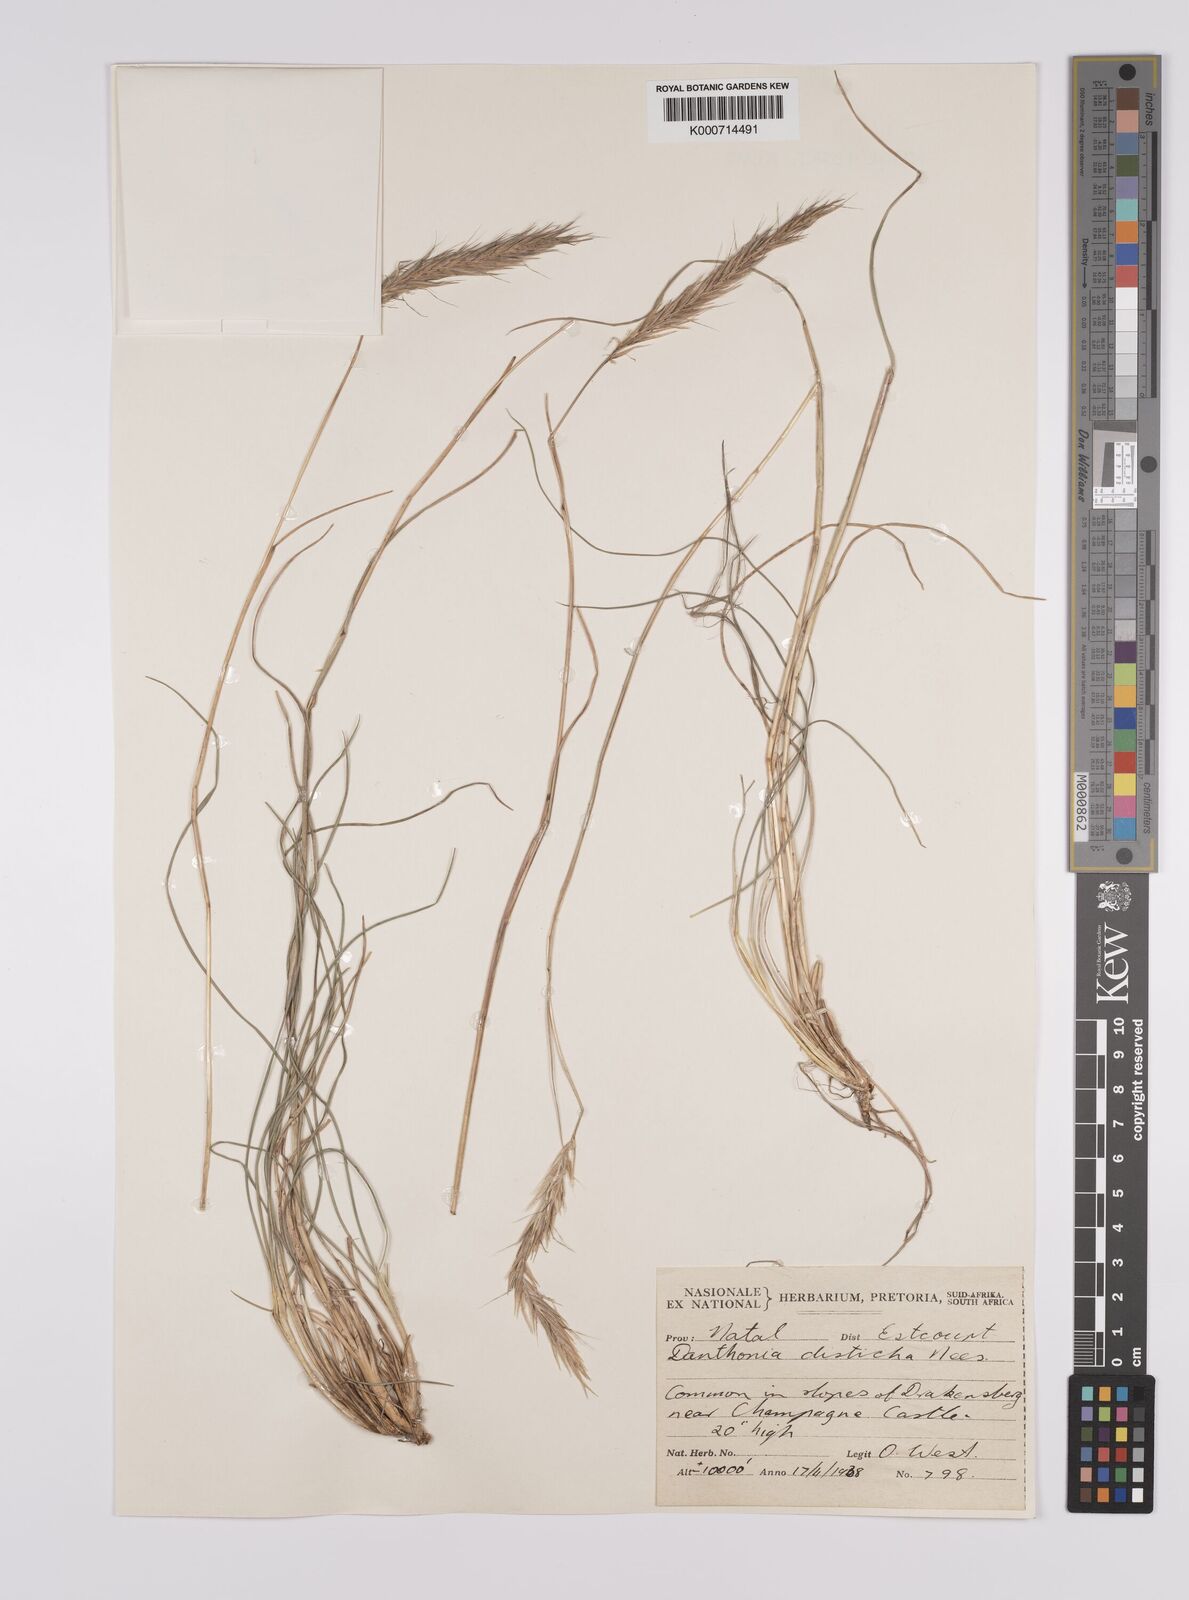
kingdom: Plantae
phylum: Tracheophyta
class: Liliopsida
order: Poales
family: Poaceae
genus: Tenaxia
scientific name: Tenaxia disticha
